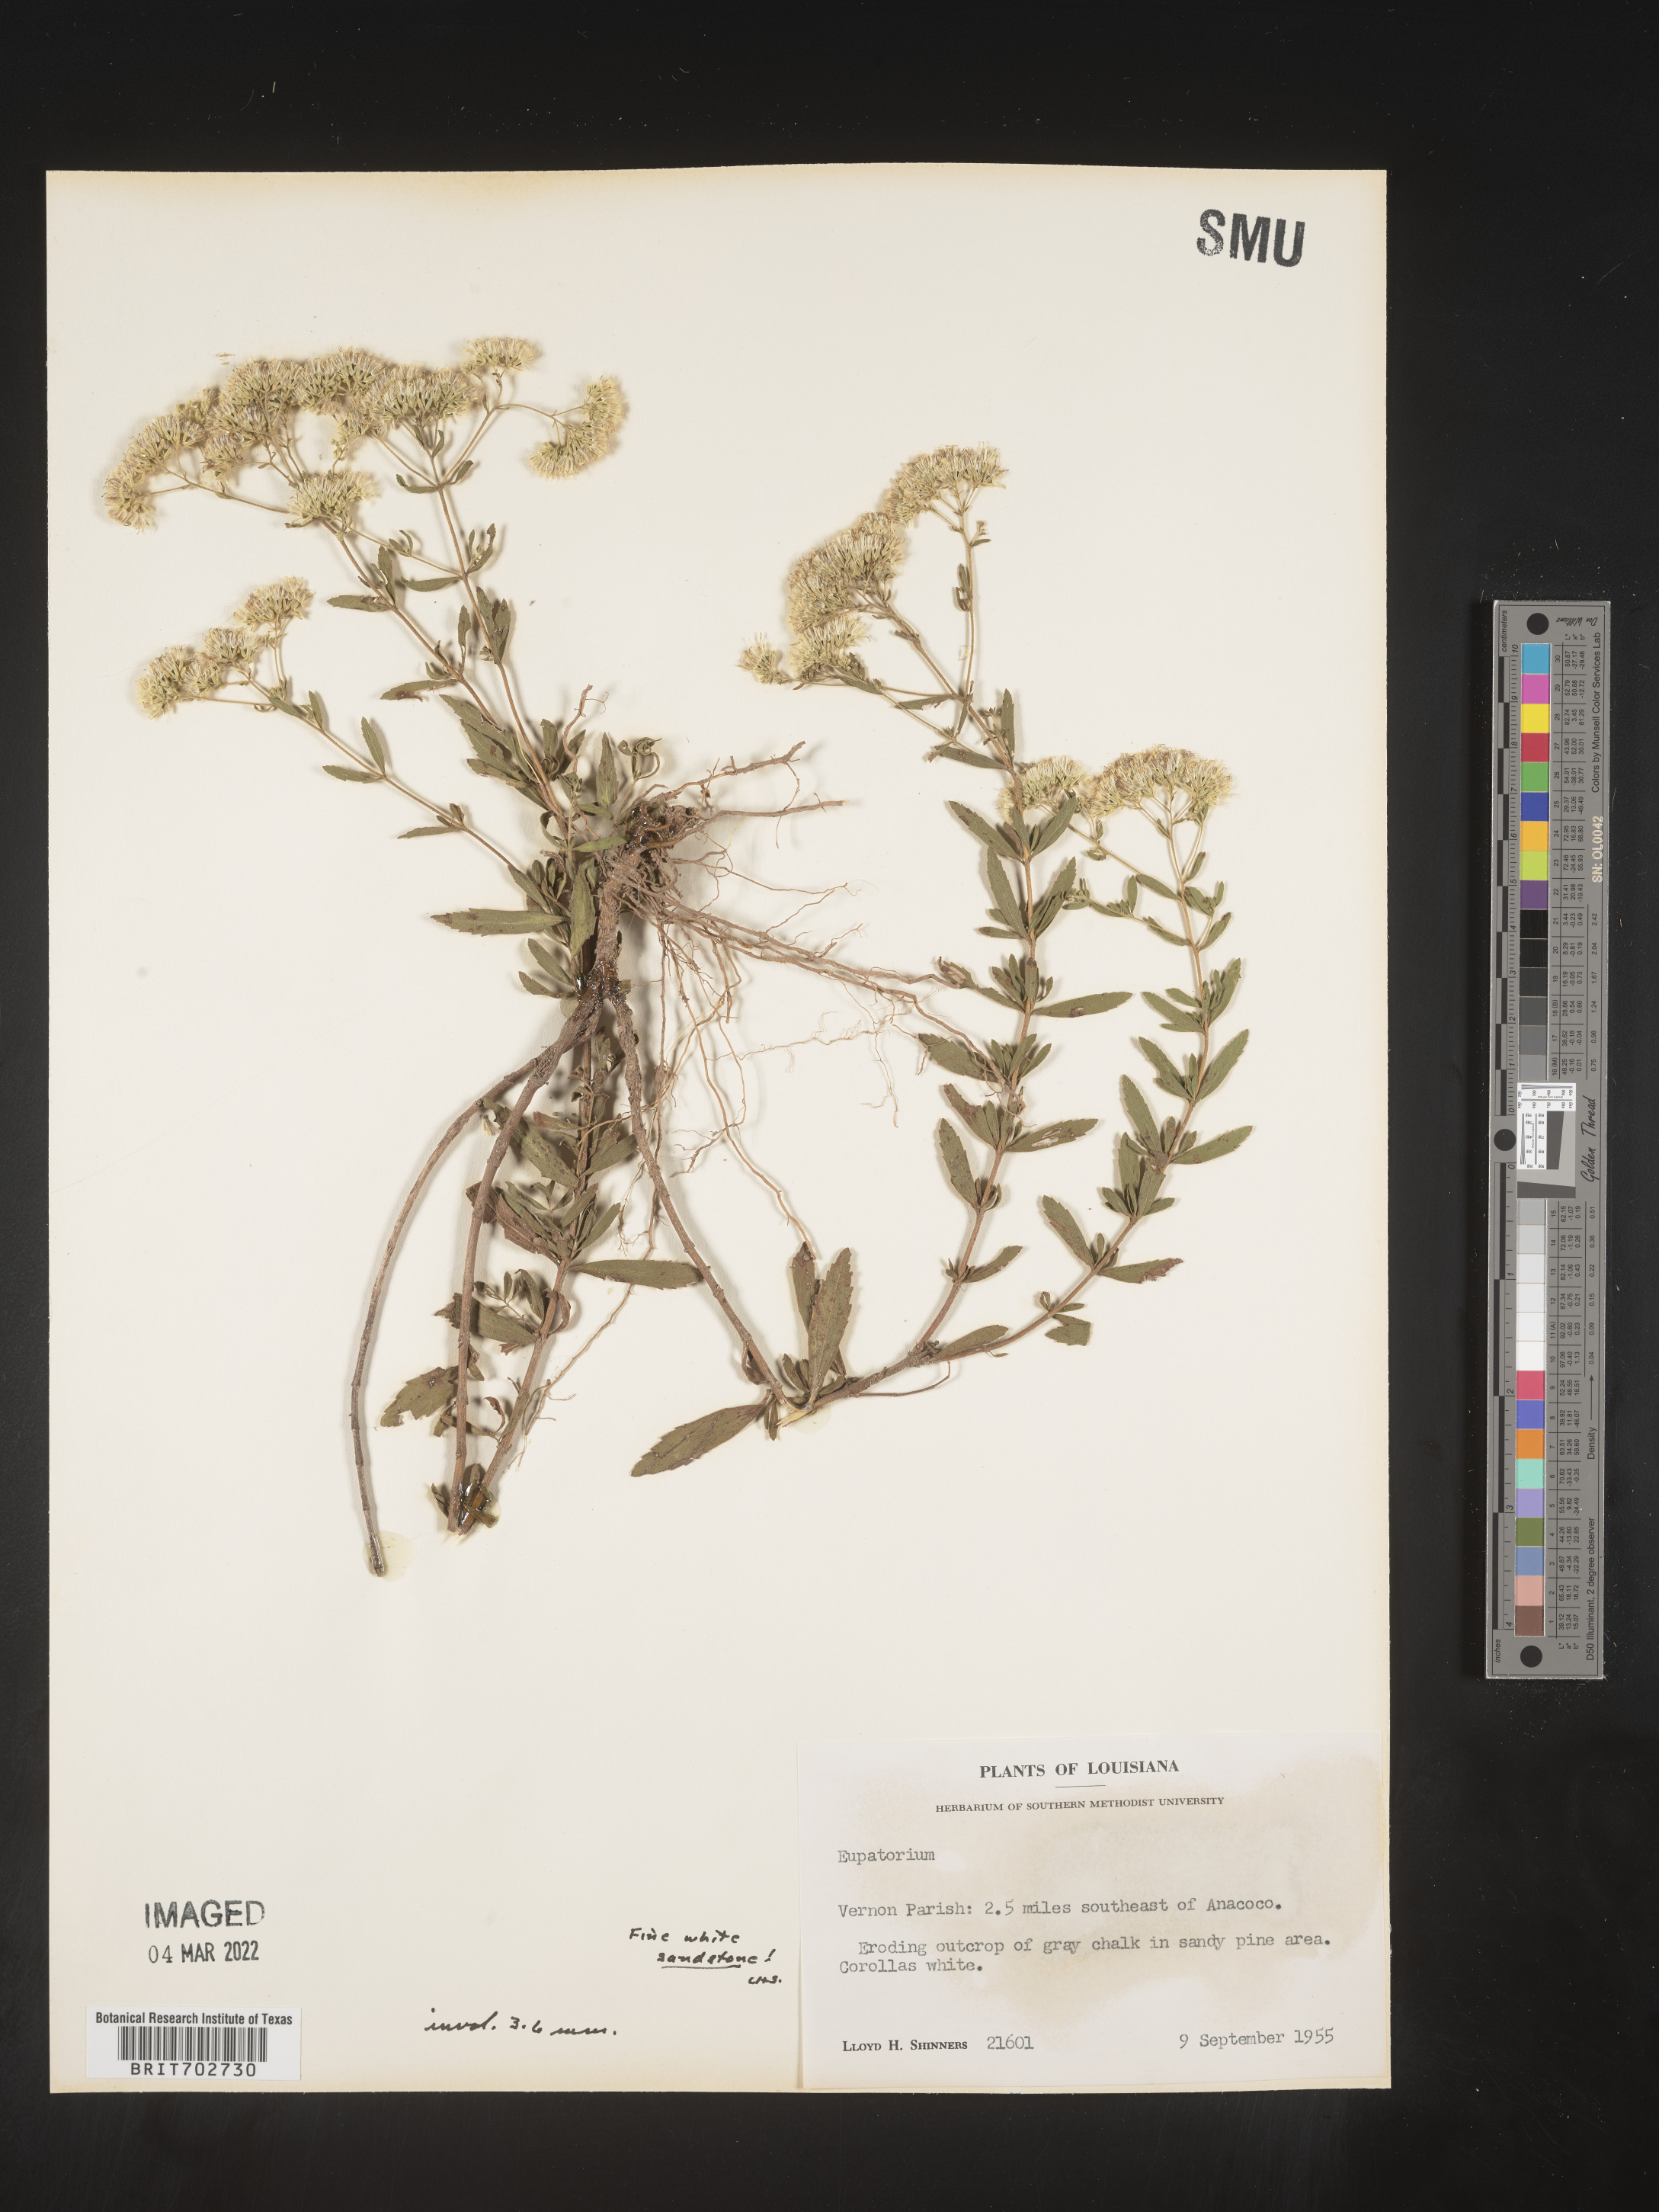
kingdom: Plantae
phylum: Tracheophyta
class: Magnoliopsida
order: Asterales
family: Asteraceae
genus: Eupatorium
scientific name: Eupatorium
